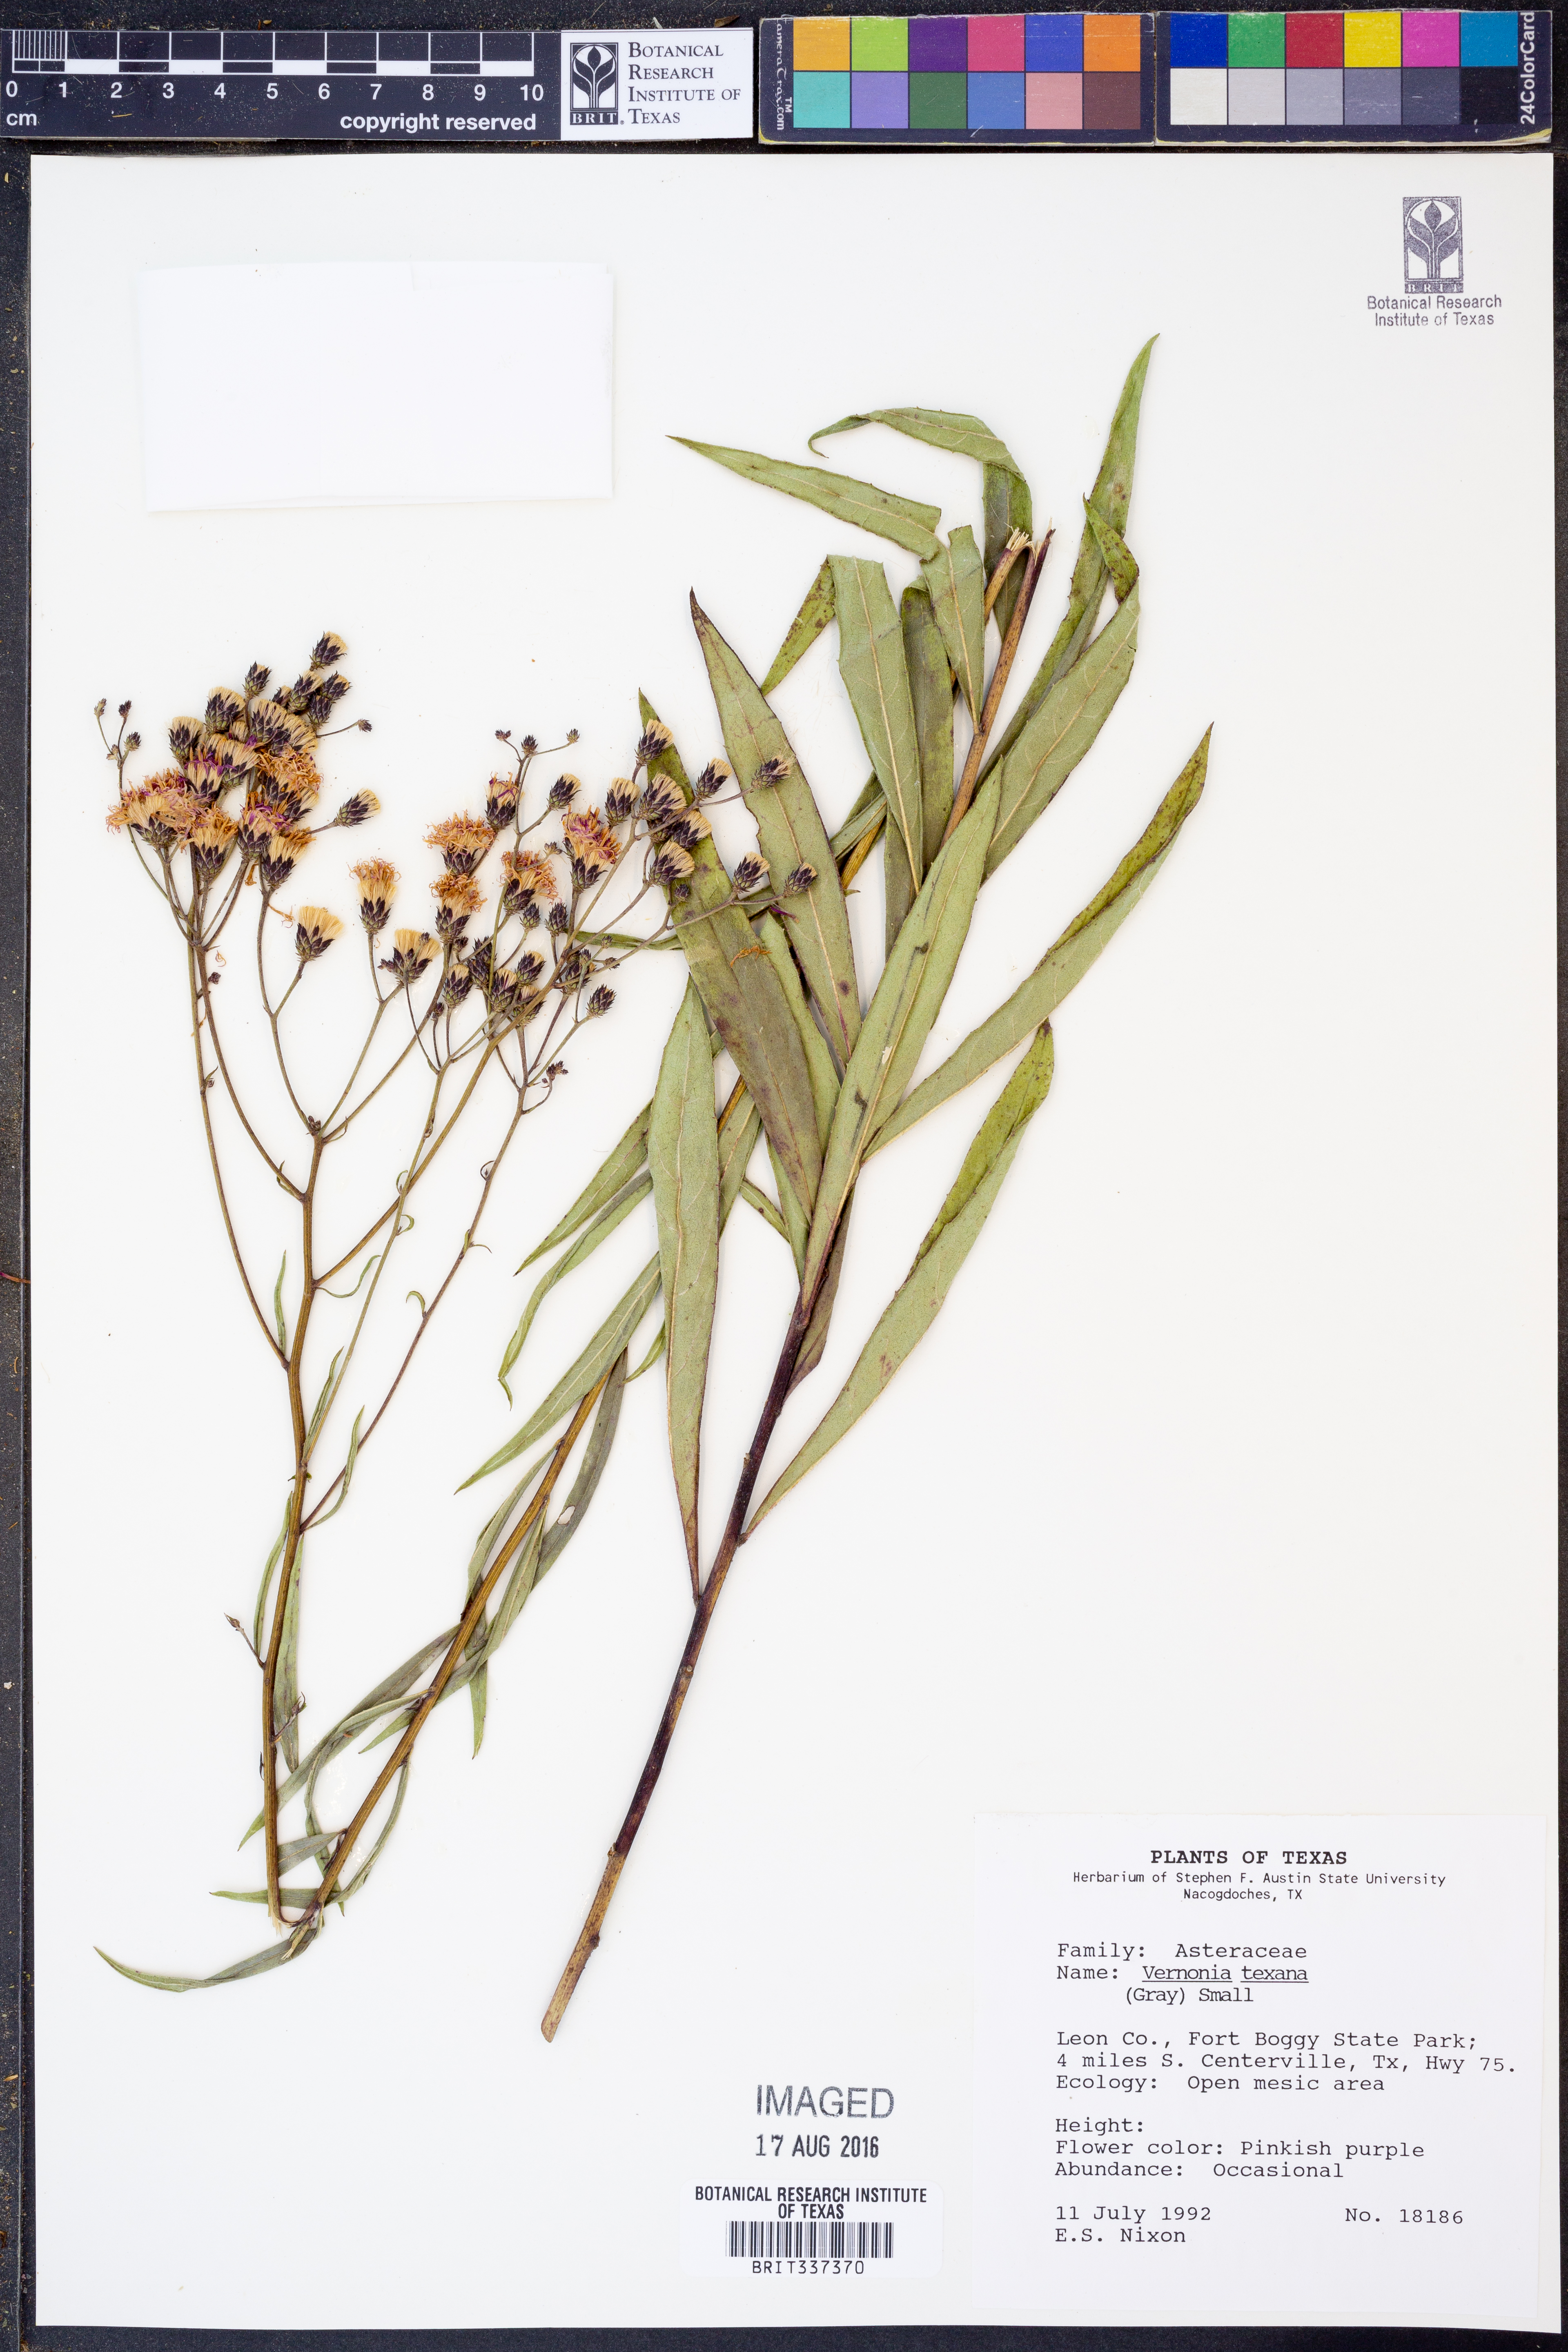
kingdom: Plantae
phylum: Tracheophyta
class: Magnoliopsida
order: Asterales
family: Asteraceae
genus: Vernonia
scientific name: Vernonia texana
